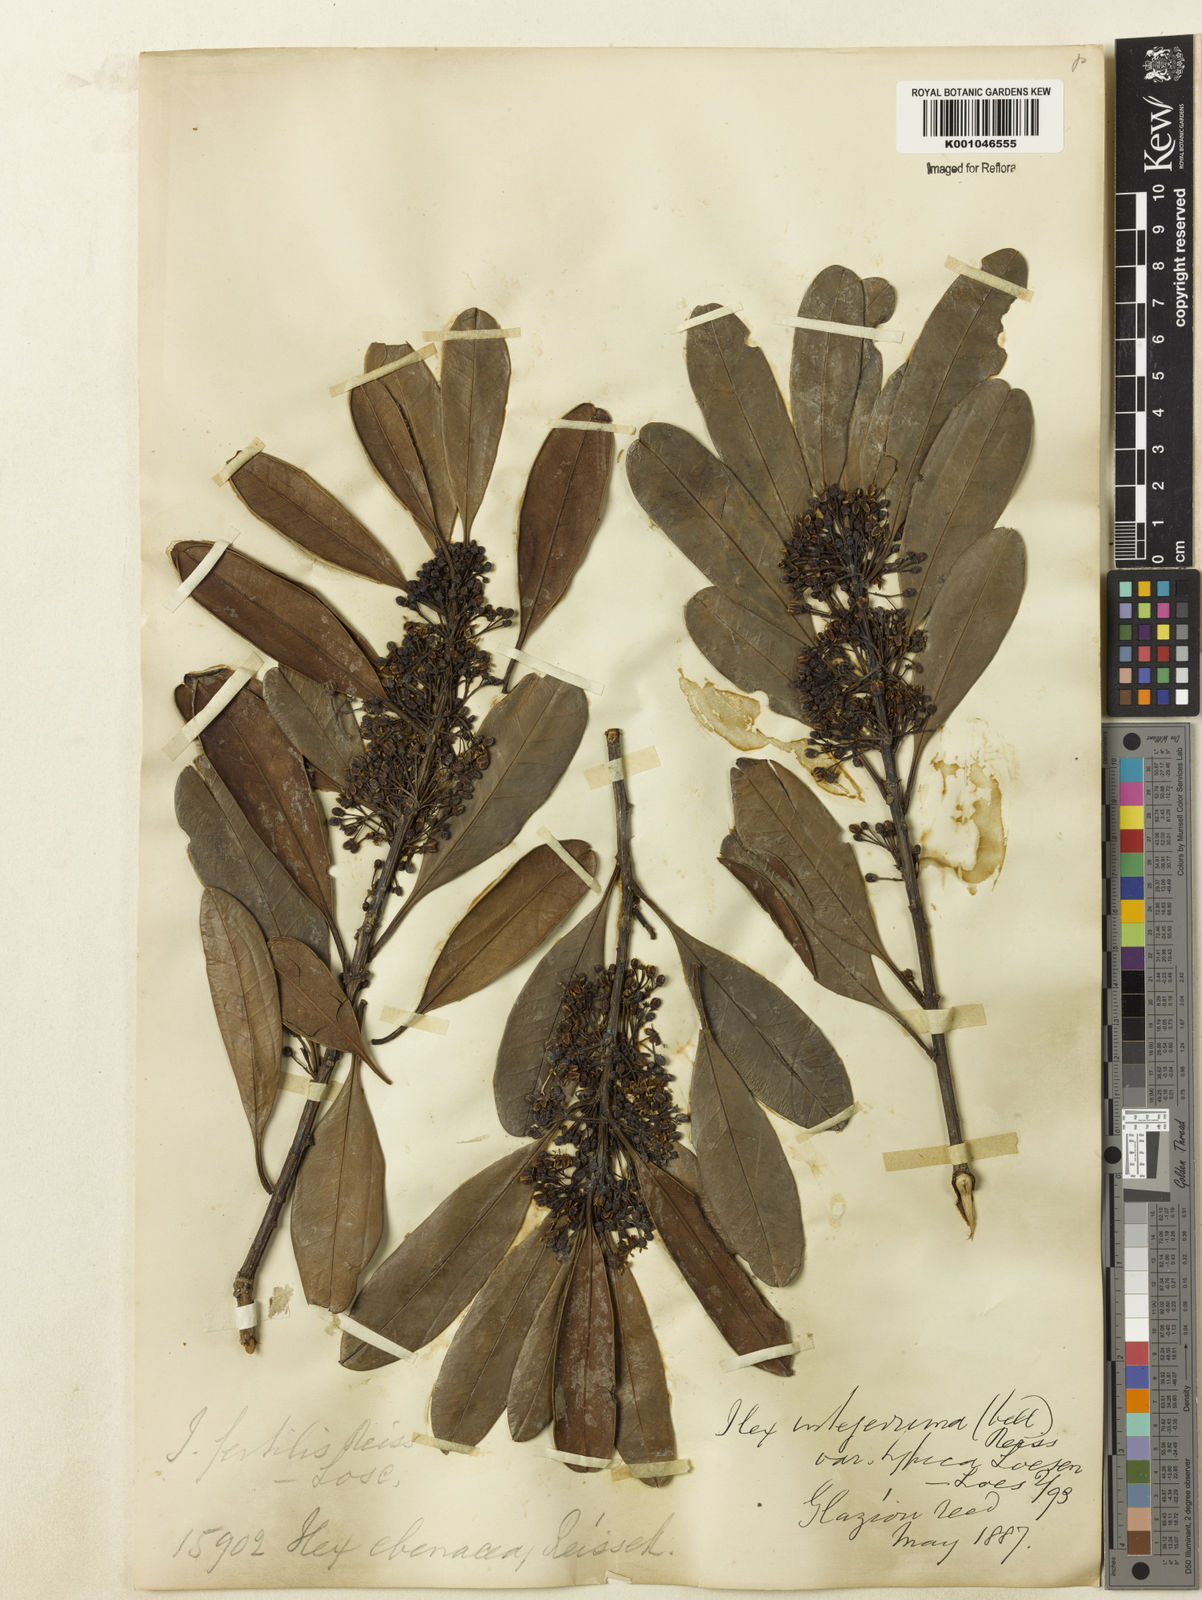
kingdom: Plantae
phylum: Tracheophyta
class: Magnoliopsida
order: Aquifoliales
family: Aquifoliaceae
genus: Ilex
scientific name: Ilex integerrima
